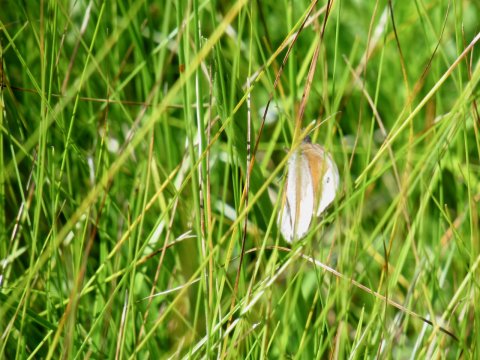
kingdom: Animalia
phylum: Arthropoda
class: Insecta
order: Lepidoptera
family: Nymphalidae
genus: Coenonympha
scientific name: Coenonympha tullia
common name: Large Heath
